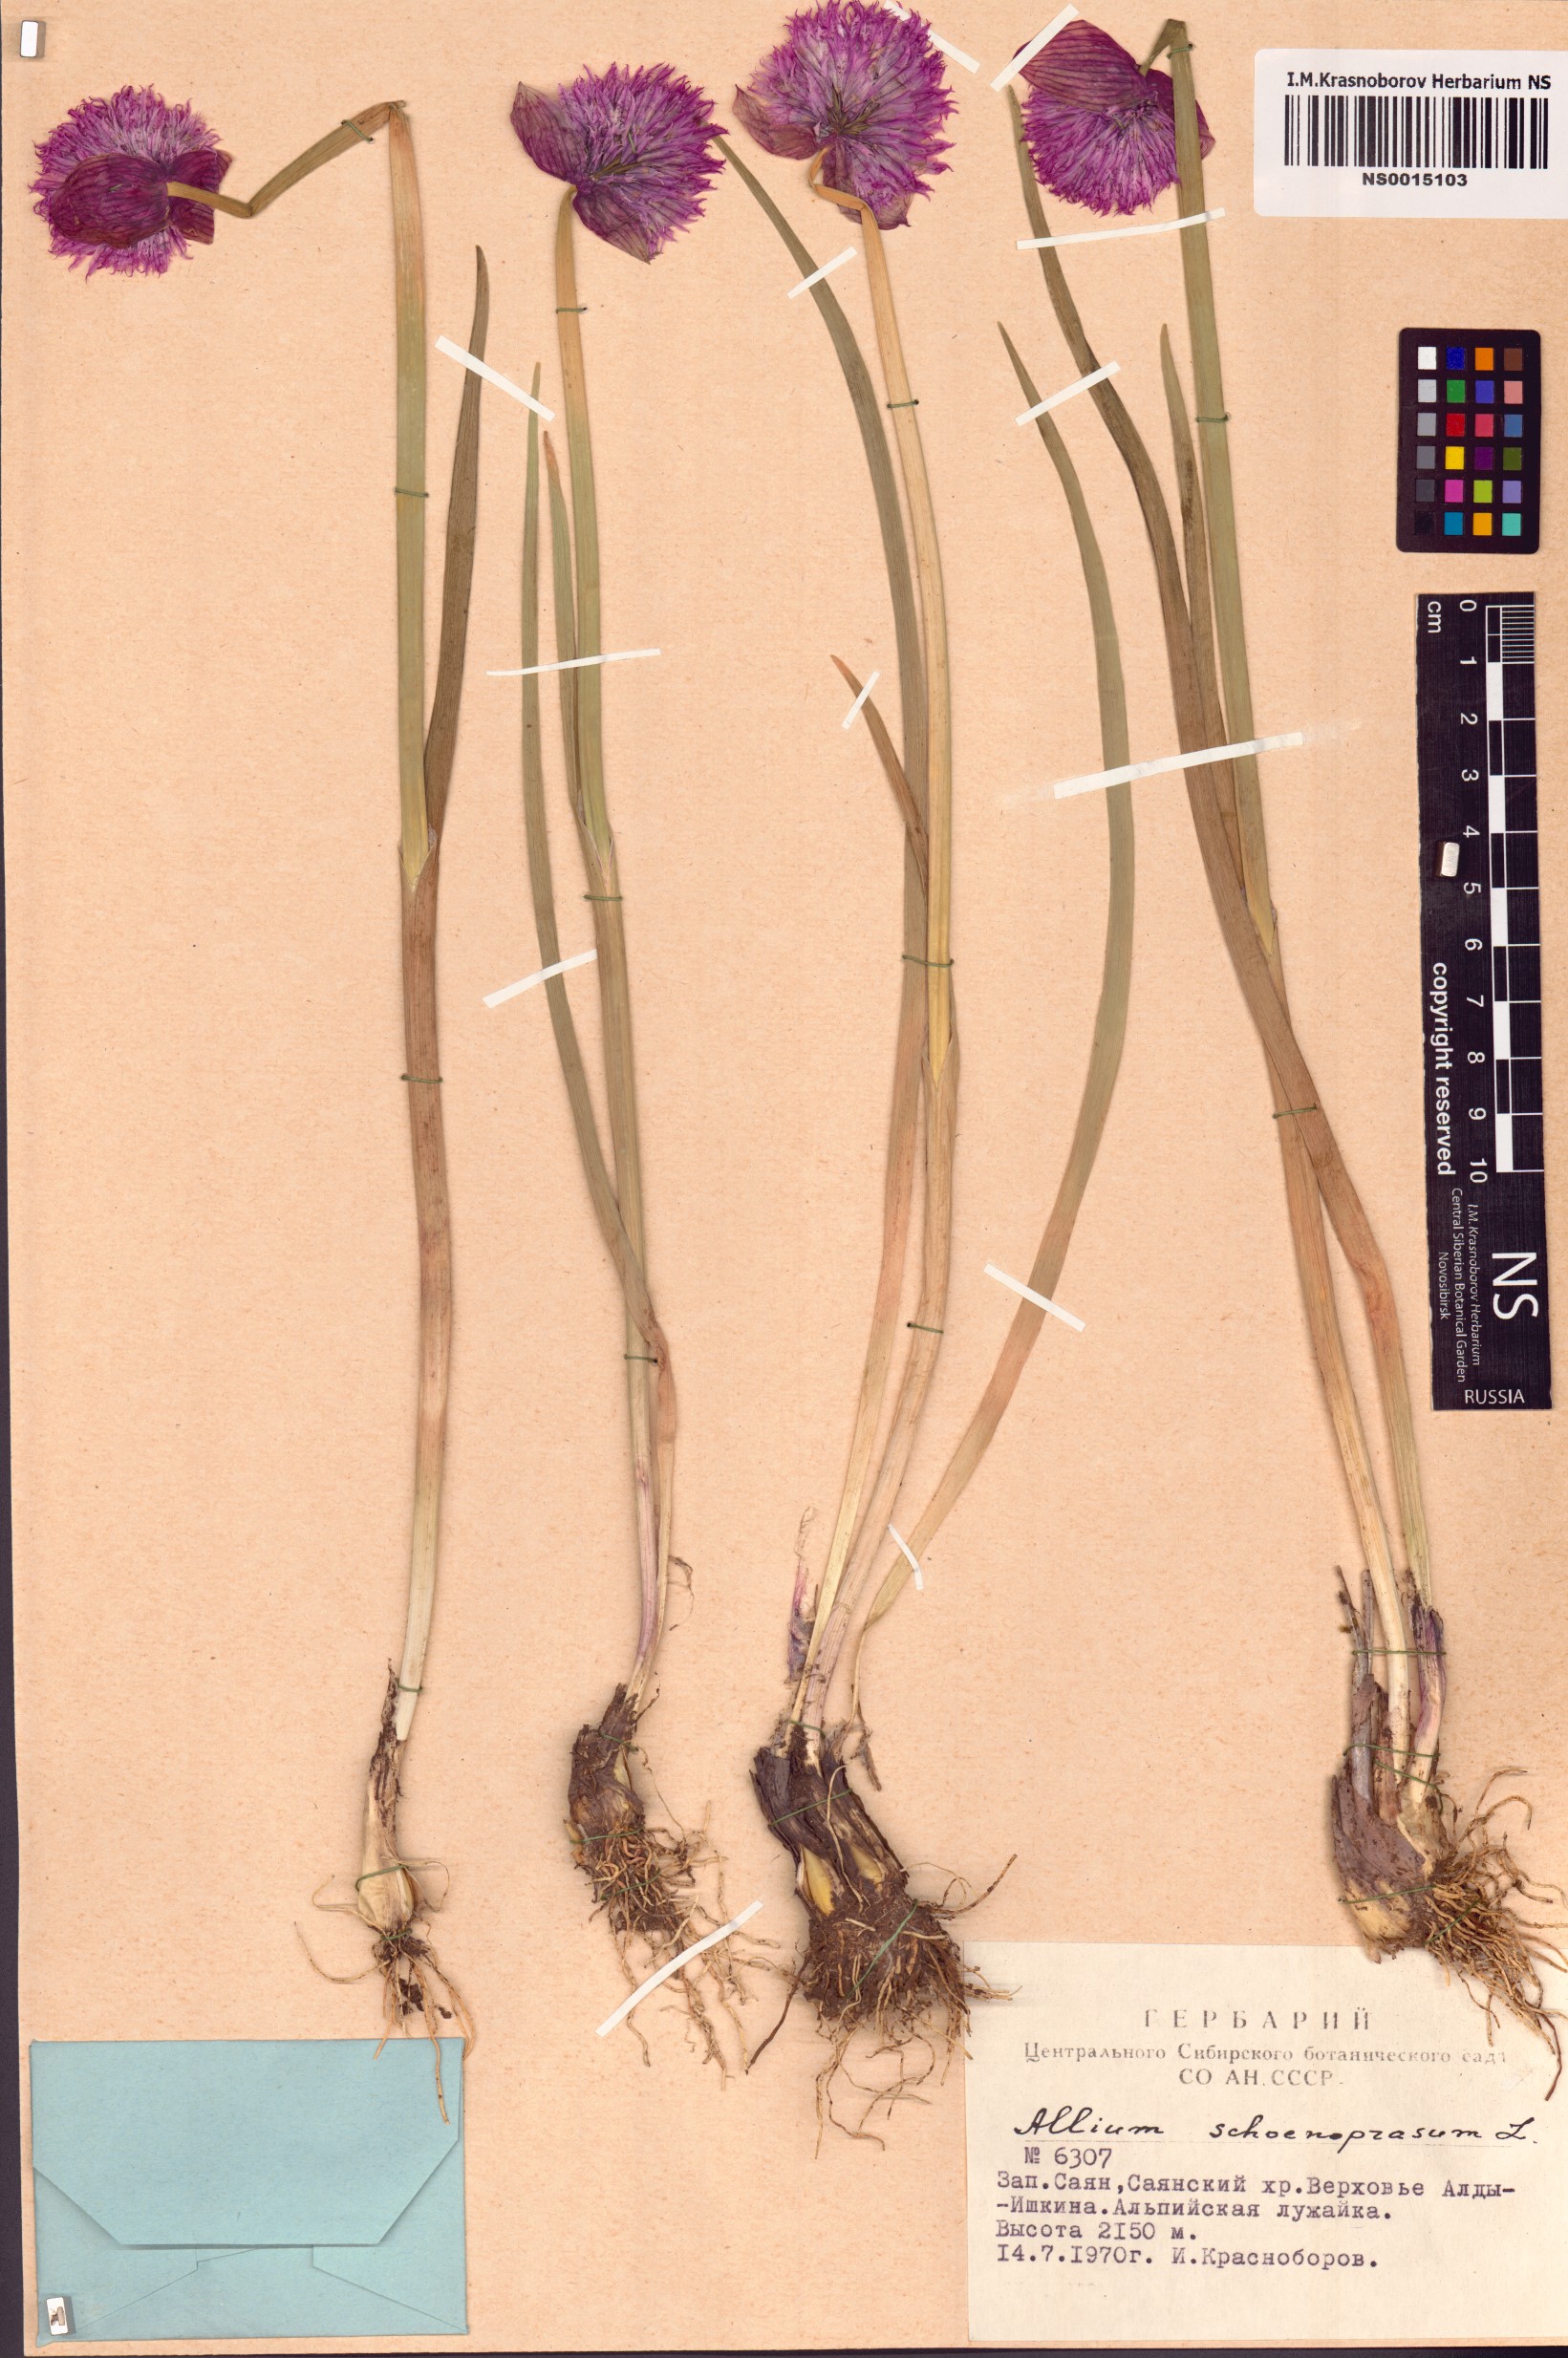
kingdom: Plantae
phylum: Tracheophyta
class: Liliopsida
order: Asparagales
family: Amaryllidaceae
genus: Allium
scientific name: Allium schoenoprasum
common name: Chives
